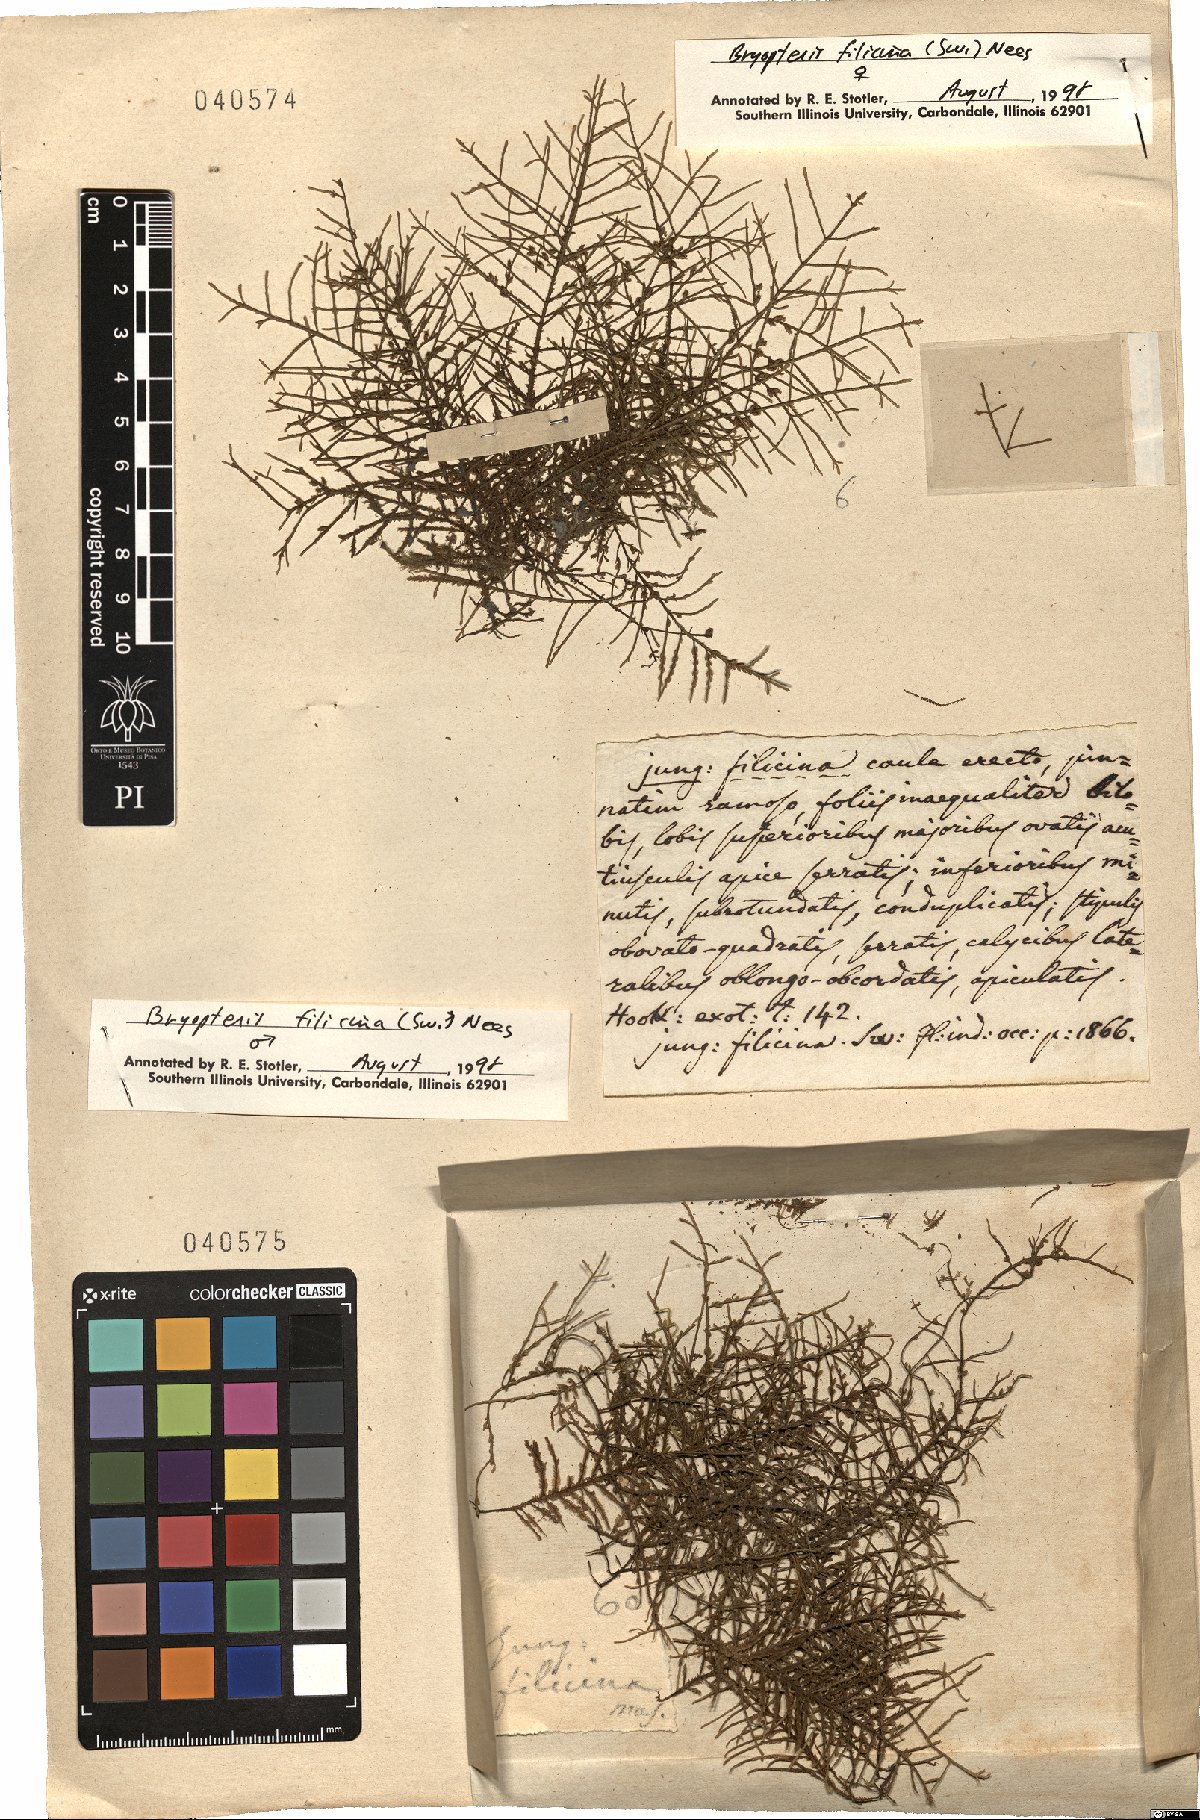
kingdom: Plantae
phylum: Marchantiophyta
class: Jungermanniopsida
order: Porellales
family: Lejeuneaceae
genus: Bryopteris
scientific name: Bryopteris filicina
